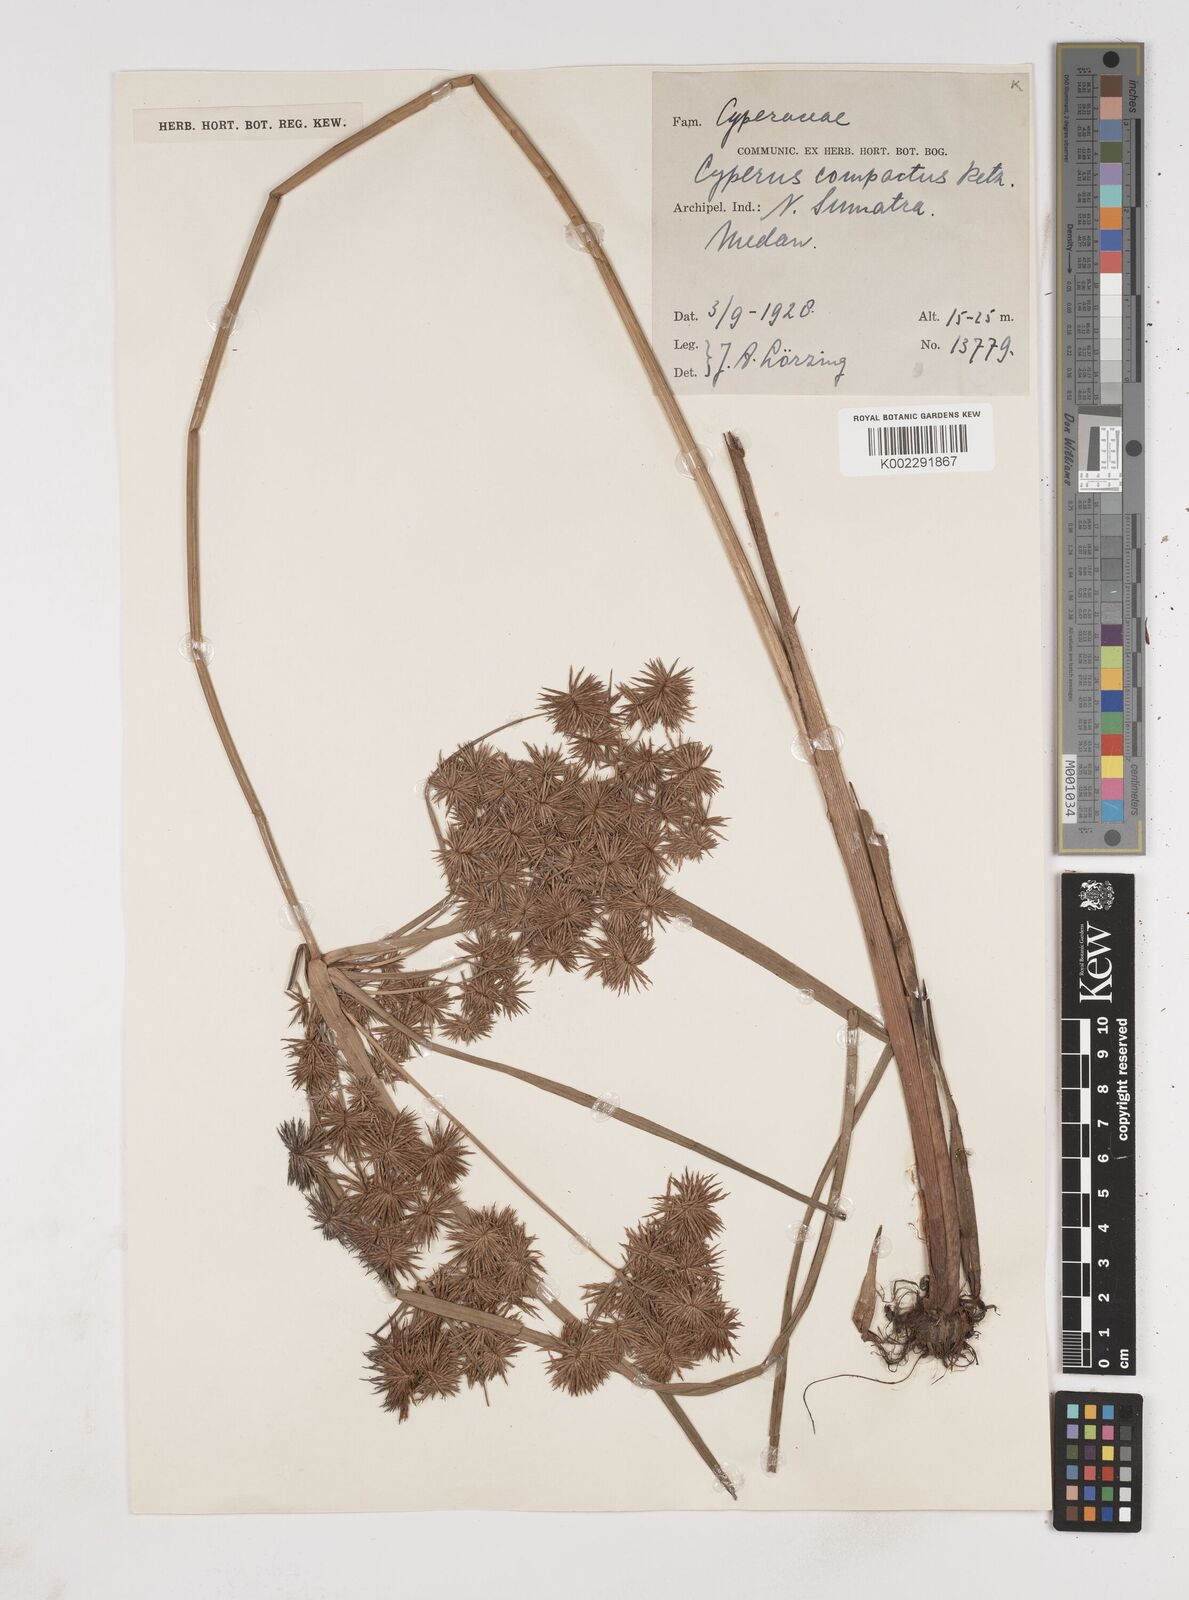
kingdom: Plantae
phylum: Tracheophyta
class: Liliopsida
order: Poales
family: Cyperaceae
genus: Cyperus
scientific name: Cyperus
